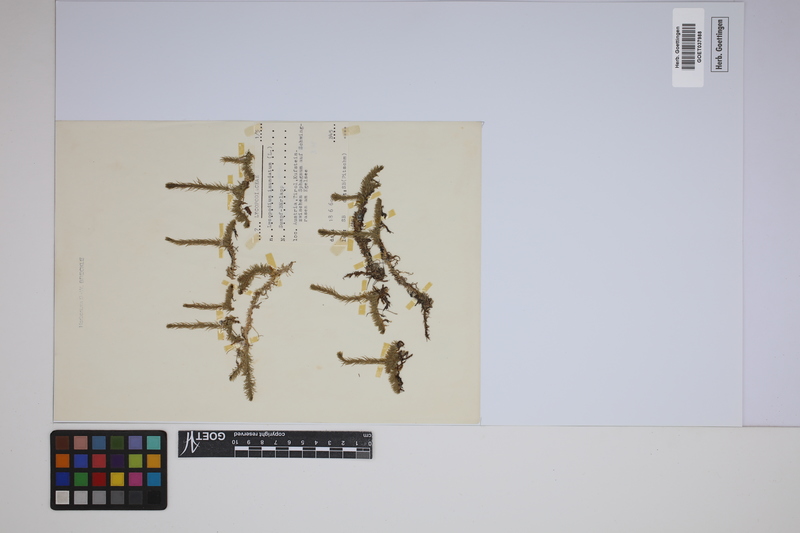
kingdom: Plantae
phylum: Tracheophyta
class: Lycopodiopsida
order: Lycopodiales
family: Lycopodiaceae
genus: Lycopodiella
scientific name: Lycopodiella inundata
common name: Marsh clubmoss
